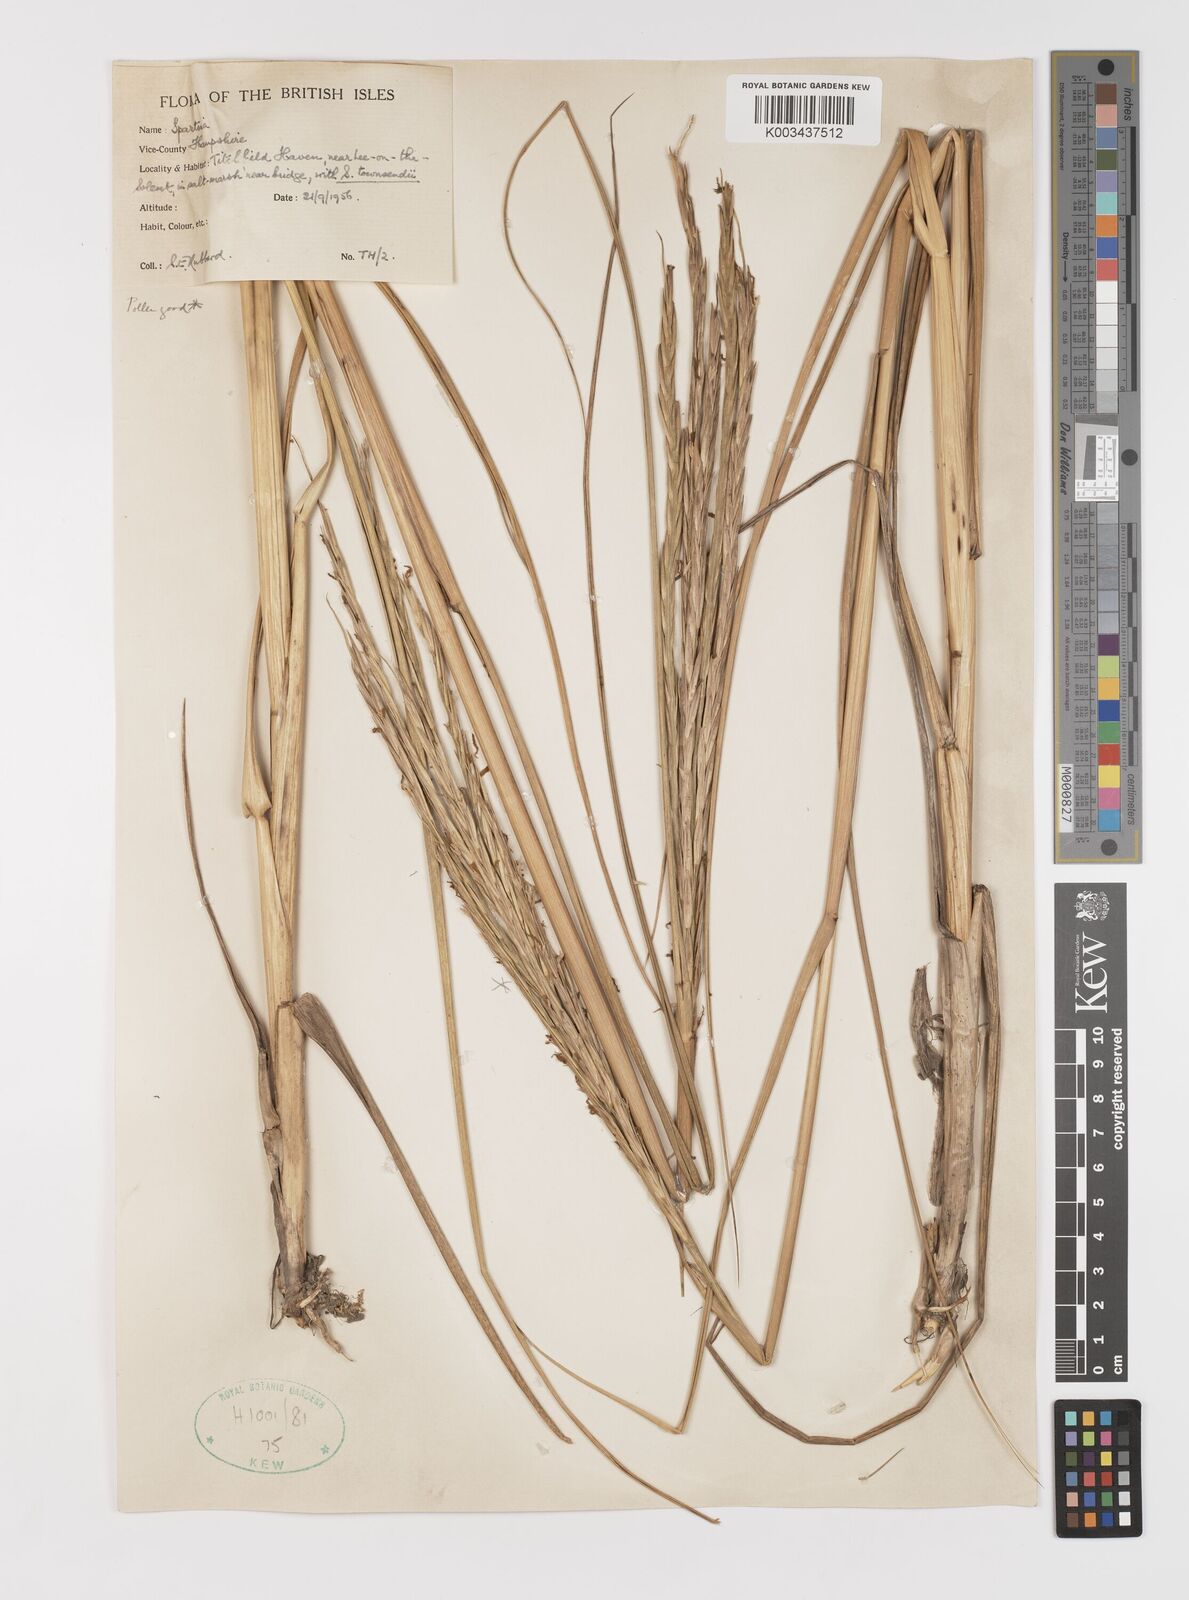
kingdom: Plantae
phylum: Tracheophyta
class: Liliopsida
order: Poales
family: Poaceae
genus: Sporobolus
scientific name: Sporobolus anglicus
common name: English cordgrass
